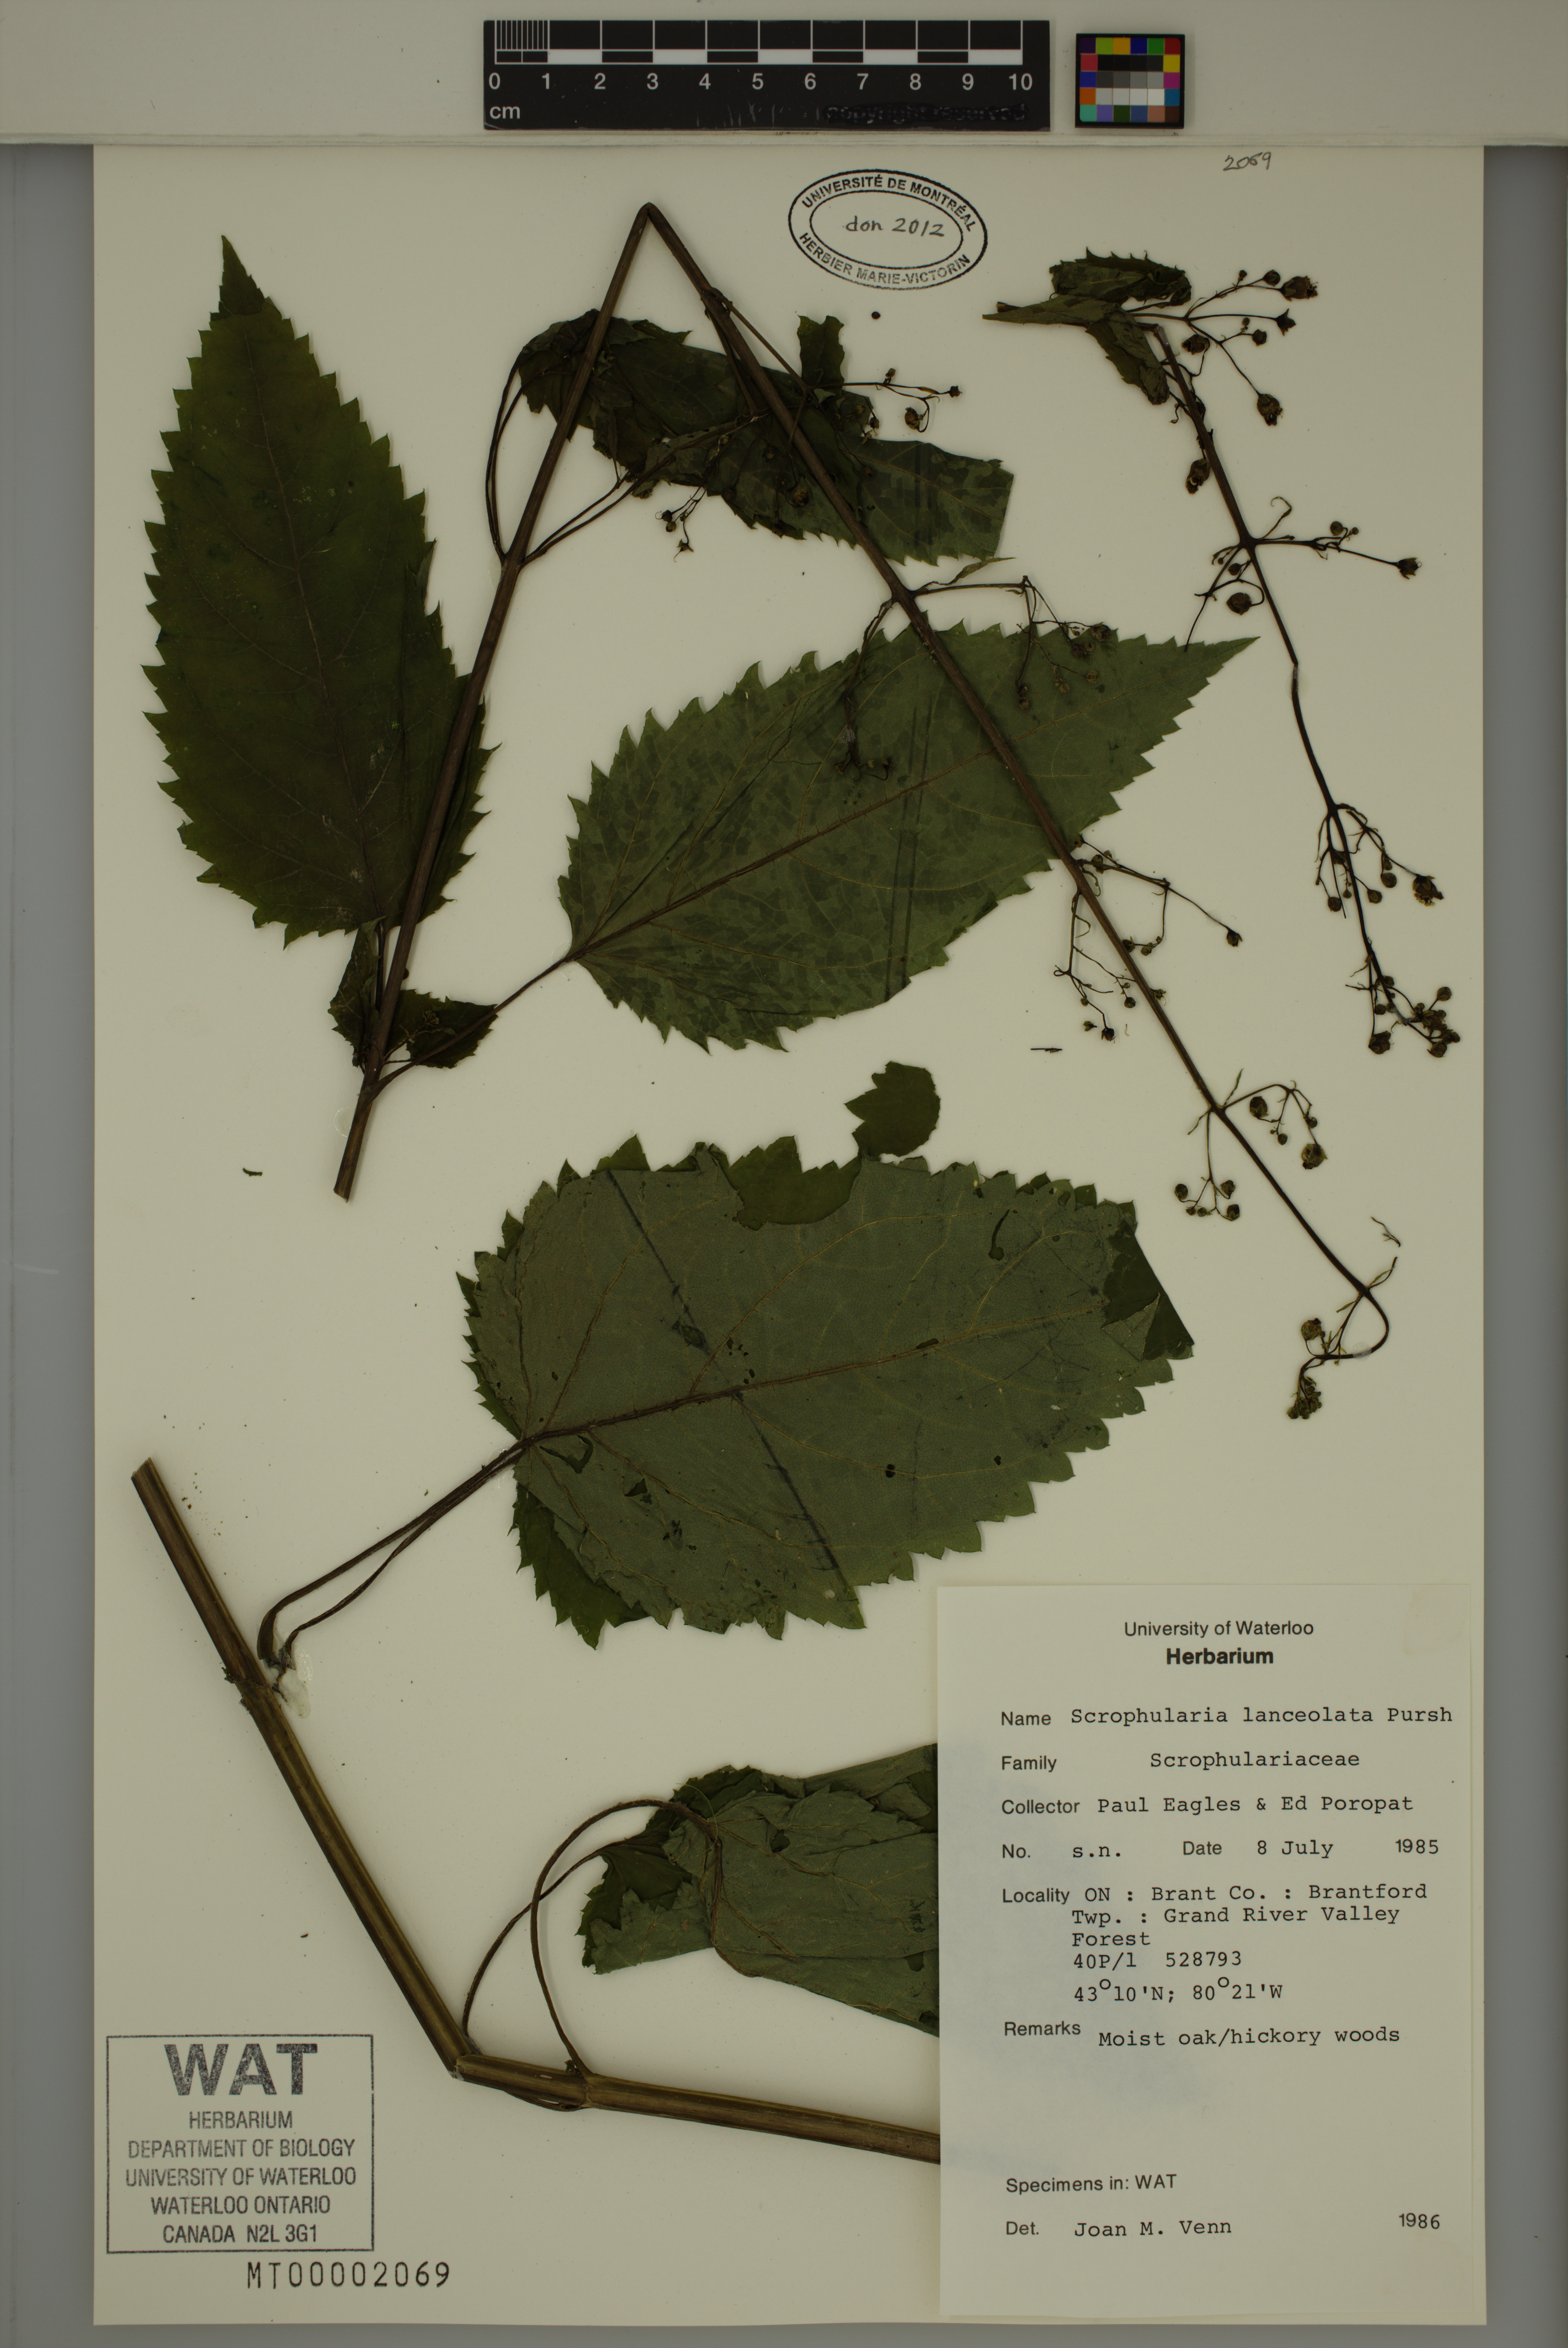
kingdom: Plantae
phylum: Tracheophyta
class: Magnoliopsida
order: Lamiales
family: Scrophulariaceae
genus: Scrophularia
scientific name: Scrophularia lanceolata
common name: American figwort
